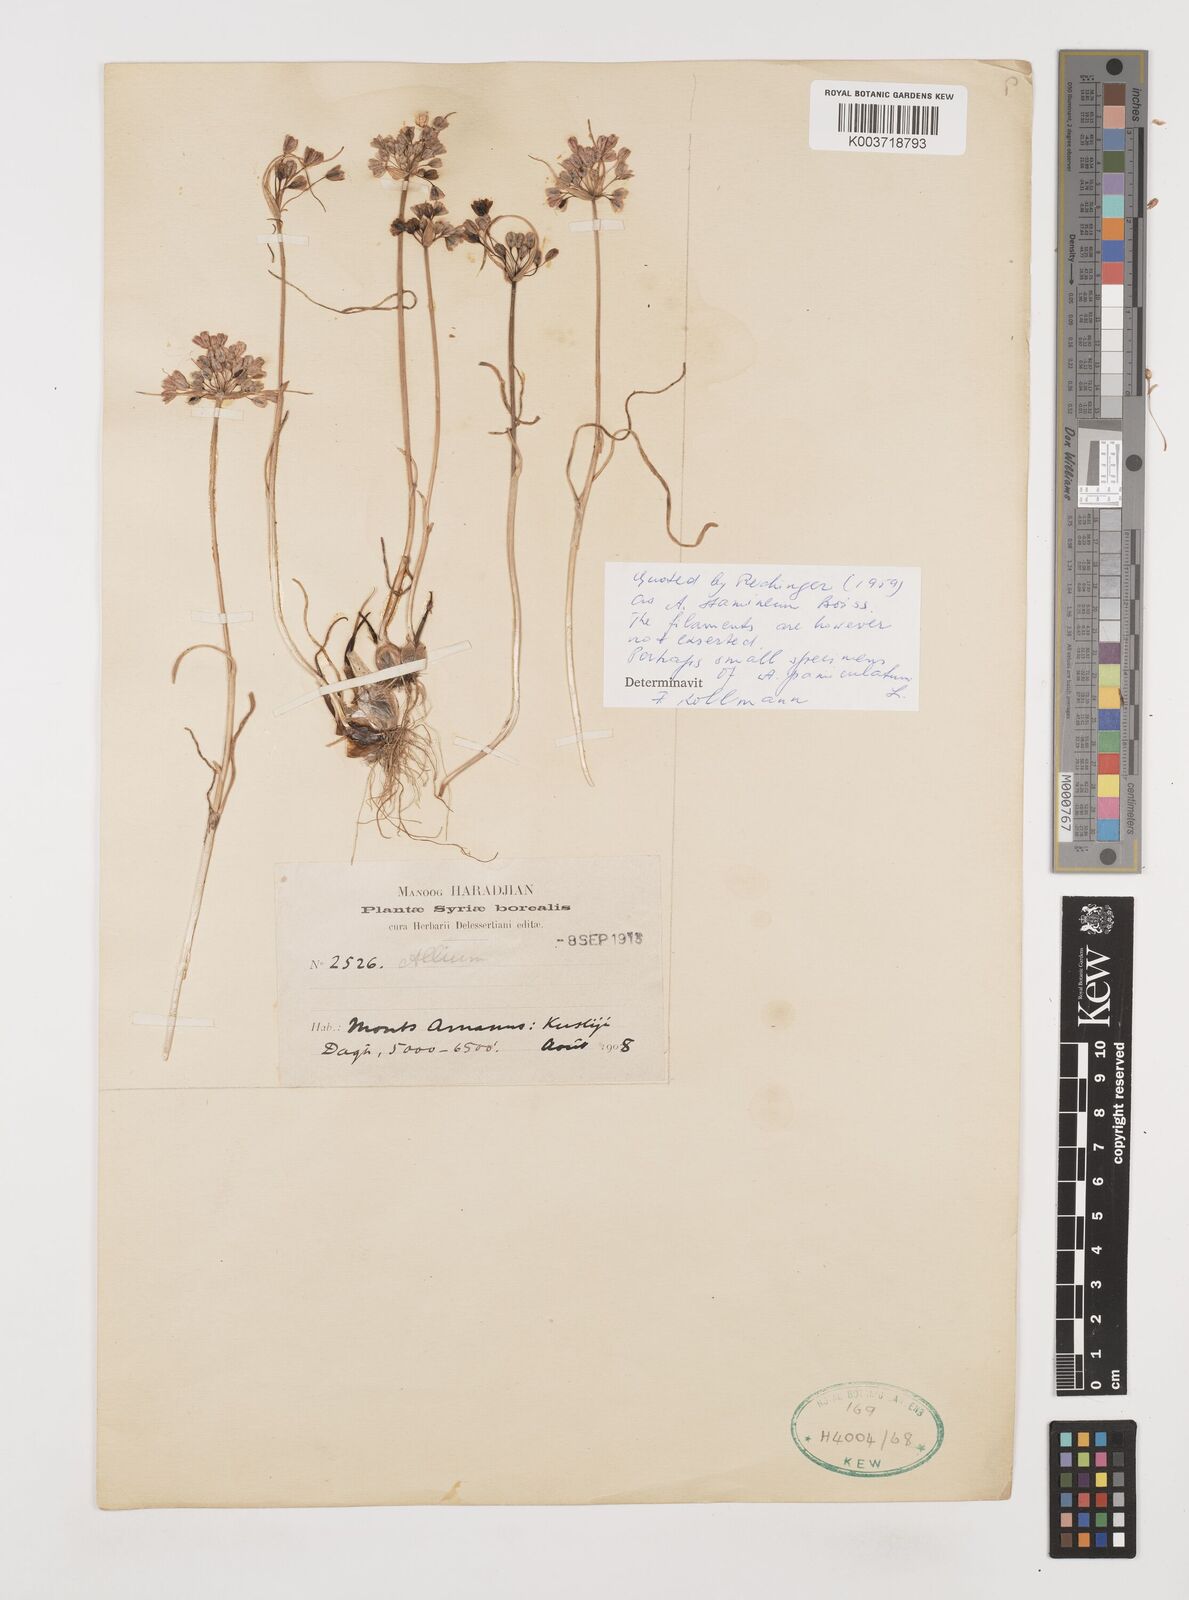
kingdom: Plantae
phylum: Tracheophyta
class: Liliopsida
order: Asparagales
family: Amaryllidaceae
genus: Allium
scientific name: Allium paniculatum
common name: Pale garlic
